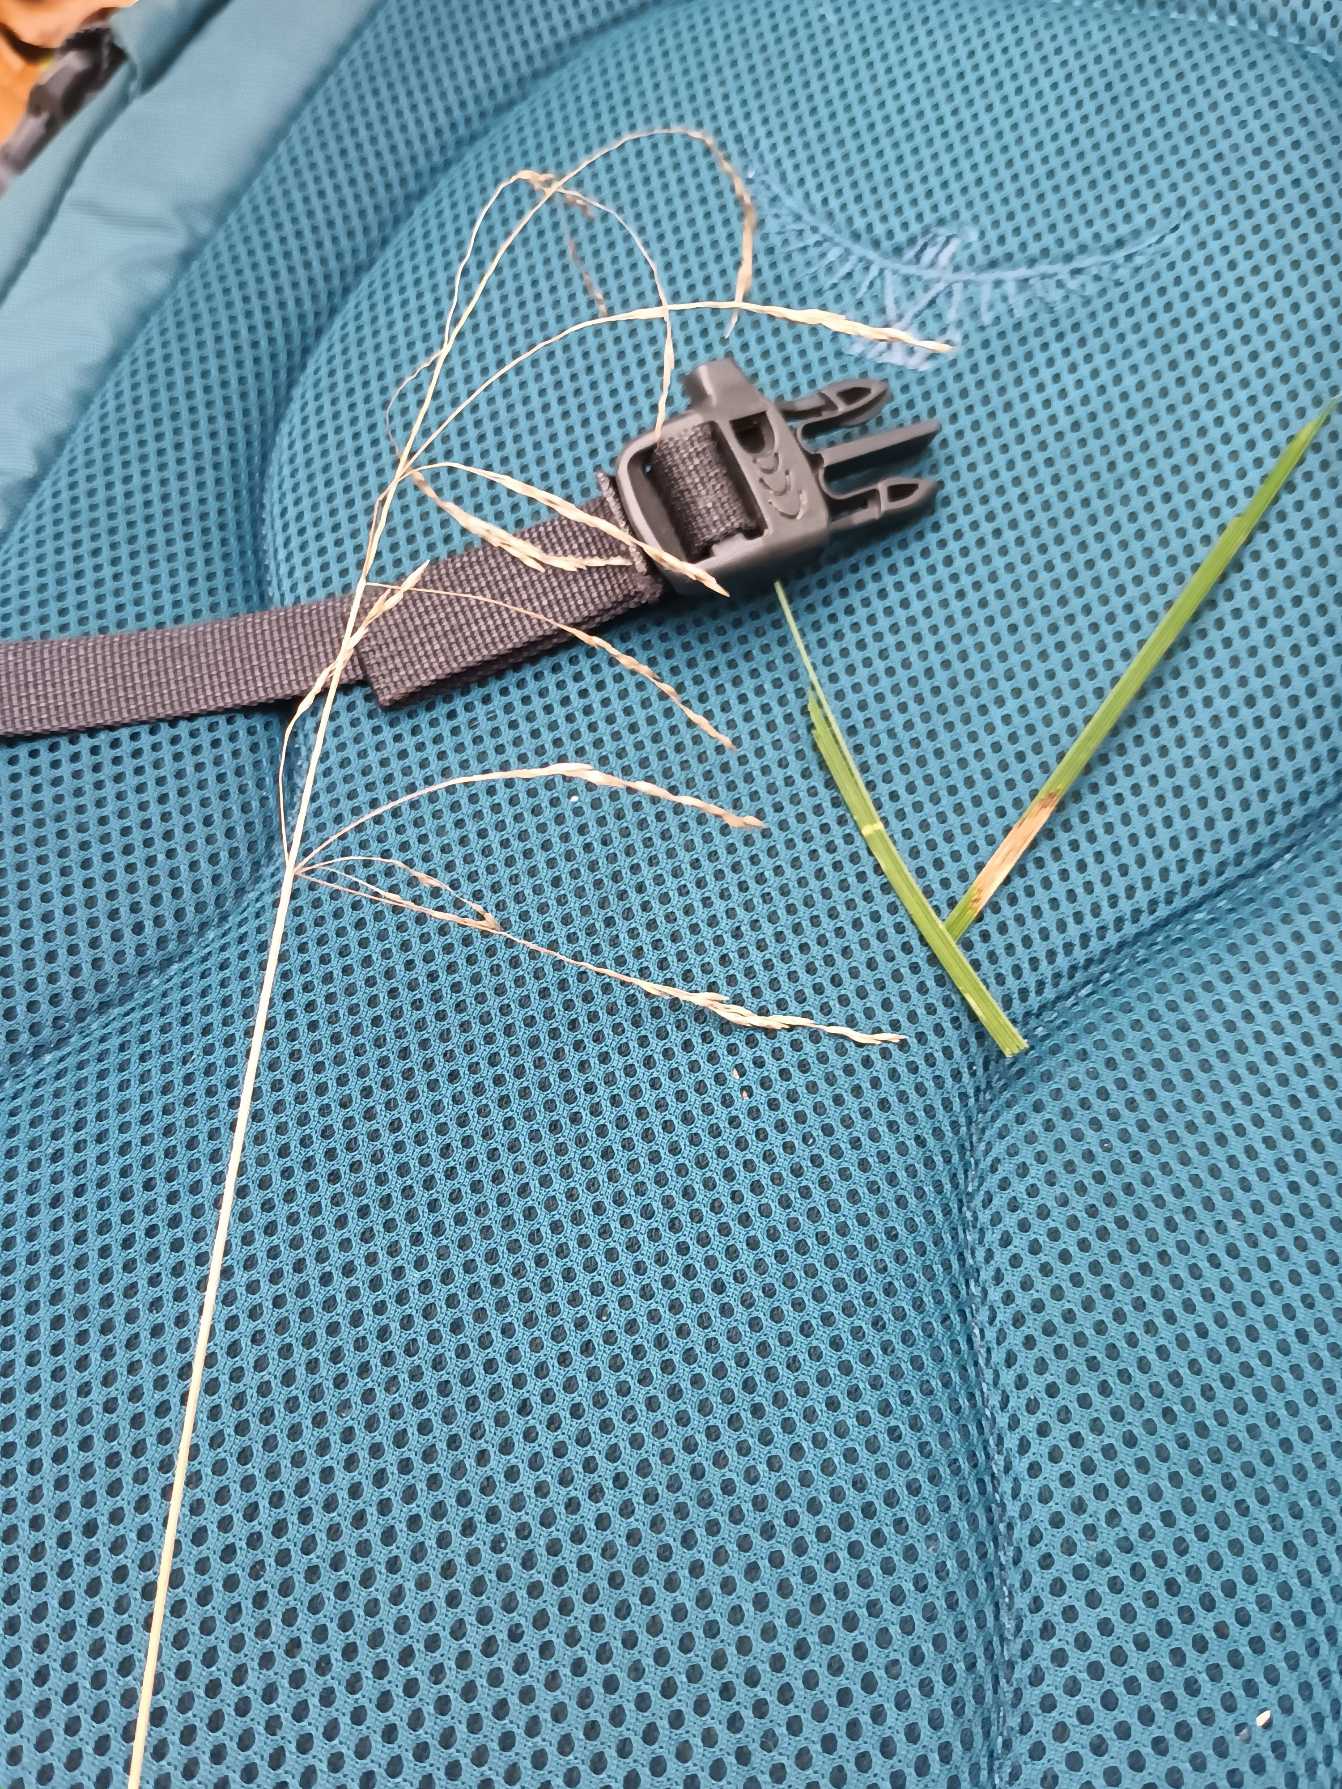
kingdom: Plantae
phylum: Tracheophyta
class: Liliopsida
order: Poales
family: Poaceae
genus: Deschampsia
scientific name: Deschampsia cespitosa
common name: Mose-bunke
